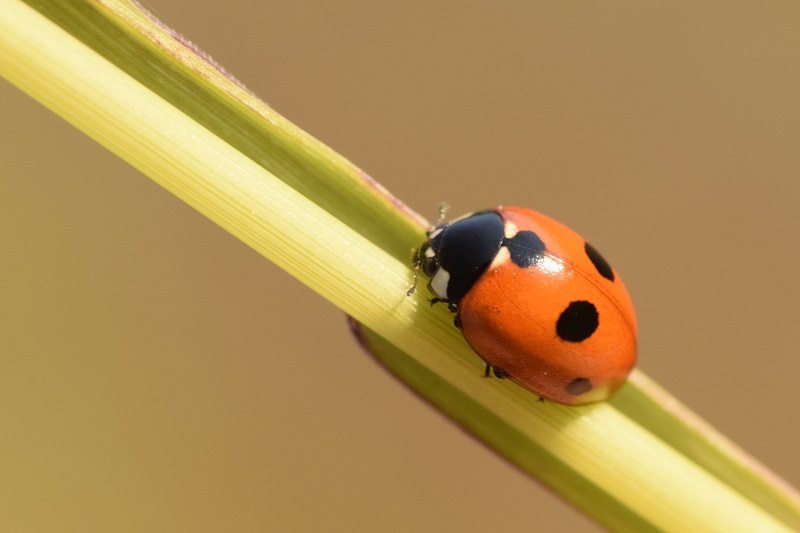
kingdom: Animalia
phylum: Arthropoda
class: Insecta
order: Coleoptera
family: Coccinellidae
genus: Coccinella
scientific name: Coccinella quinquepunctata
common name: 5-spot ladybird
